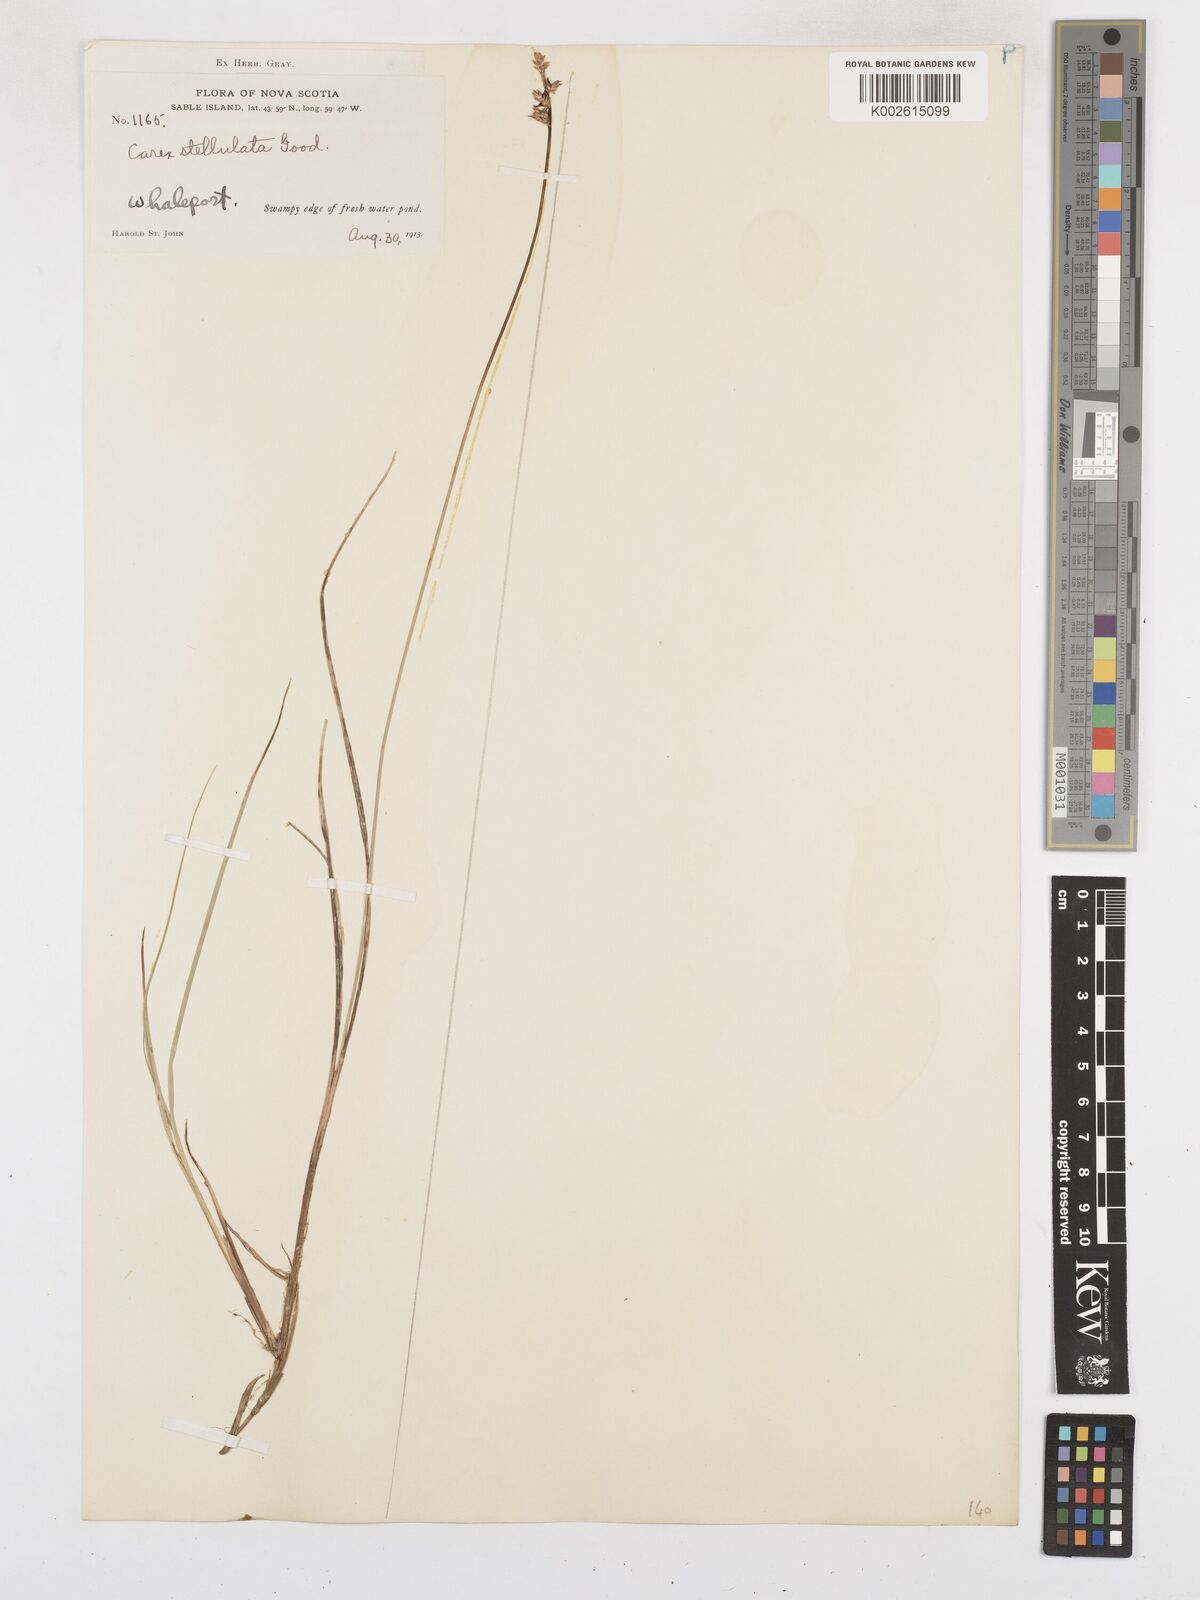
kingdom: Plantae
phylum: Tracheophyta
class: Liliopsida
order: Poales
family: Cyperaceae
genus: Carex
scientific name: Carex echinata
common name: Star sedge
